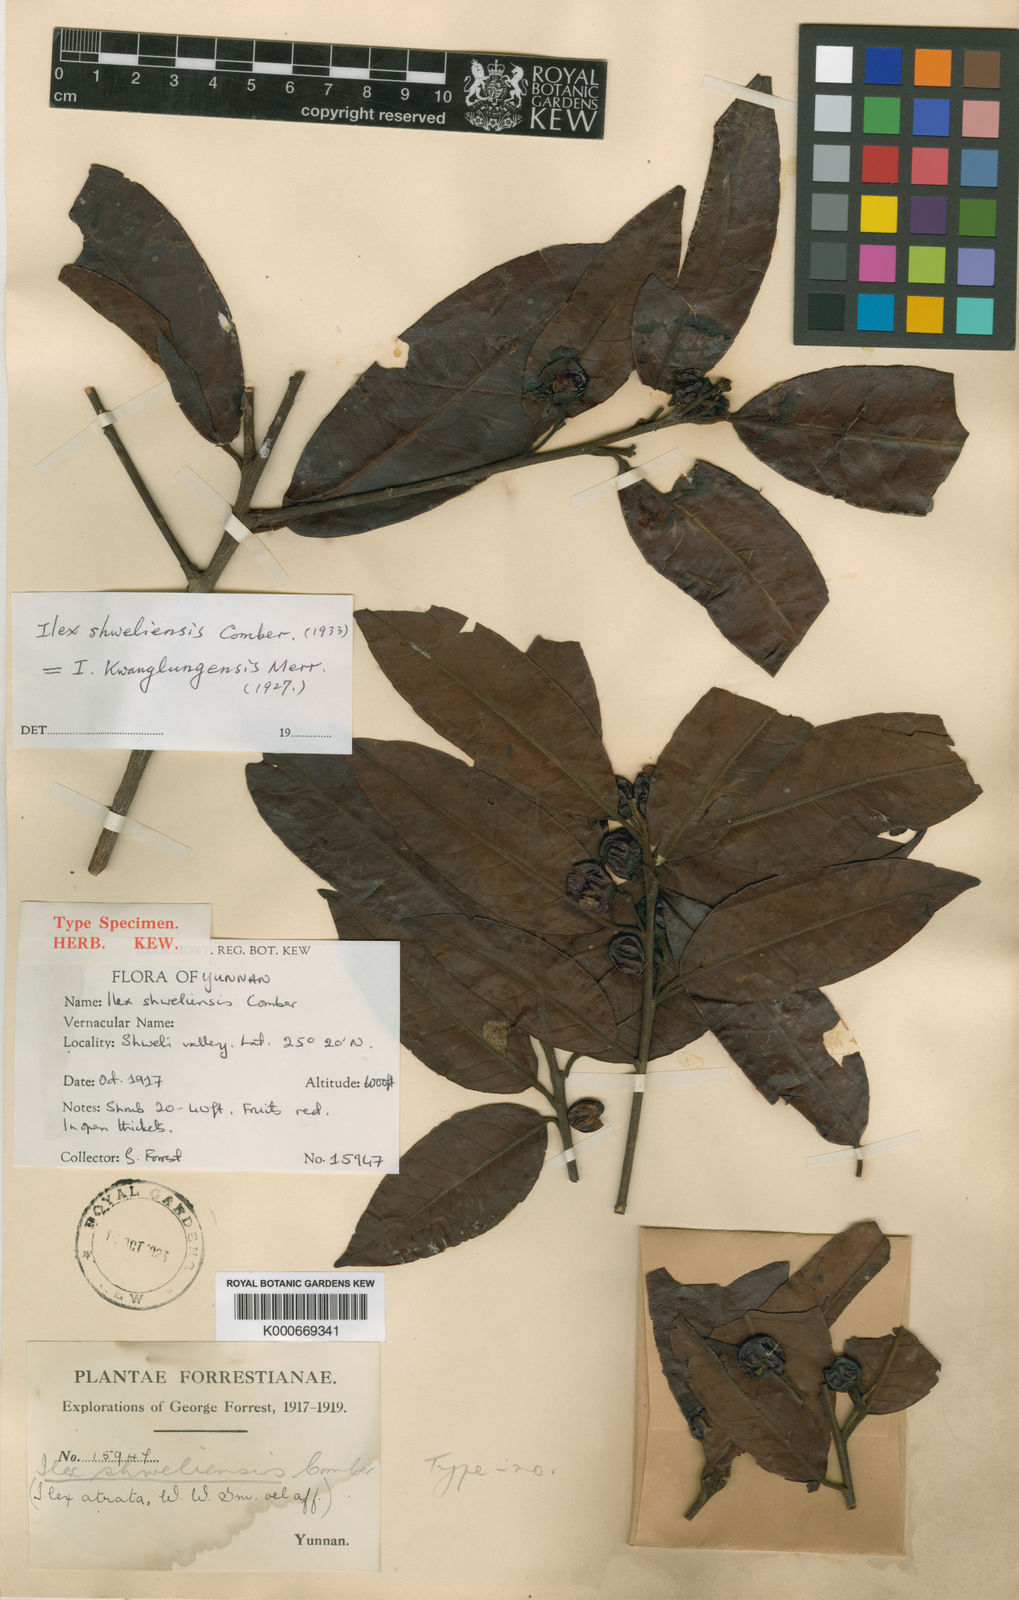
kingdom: Plantae
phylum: Tracheophyta
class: Magnoliopsida
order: Aquifoliales
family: Aquifoliaceae
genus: Ilex
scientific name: Ilex kwangtungensis
